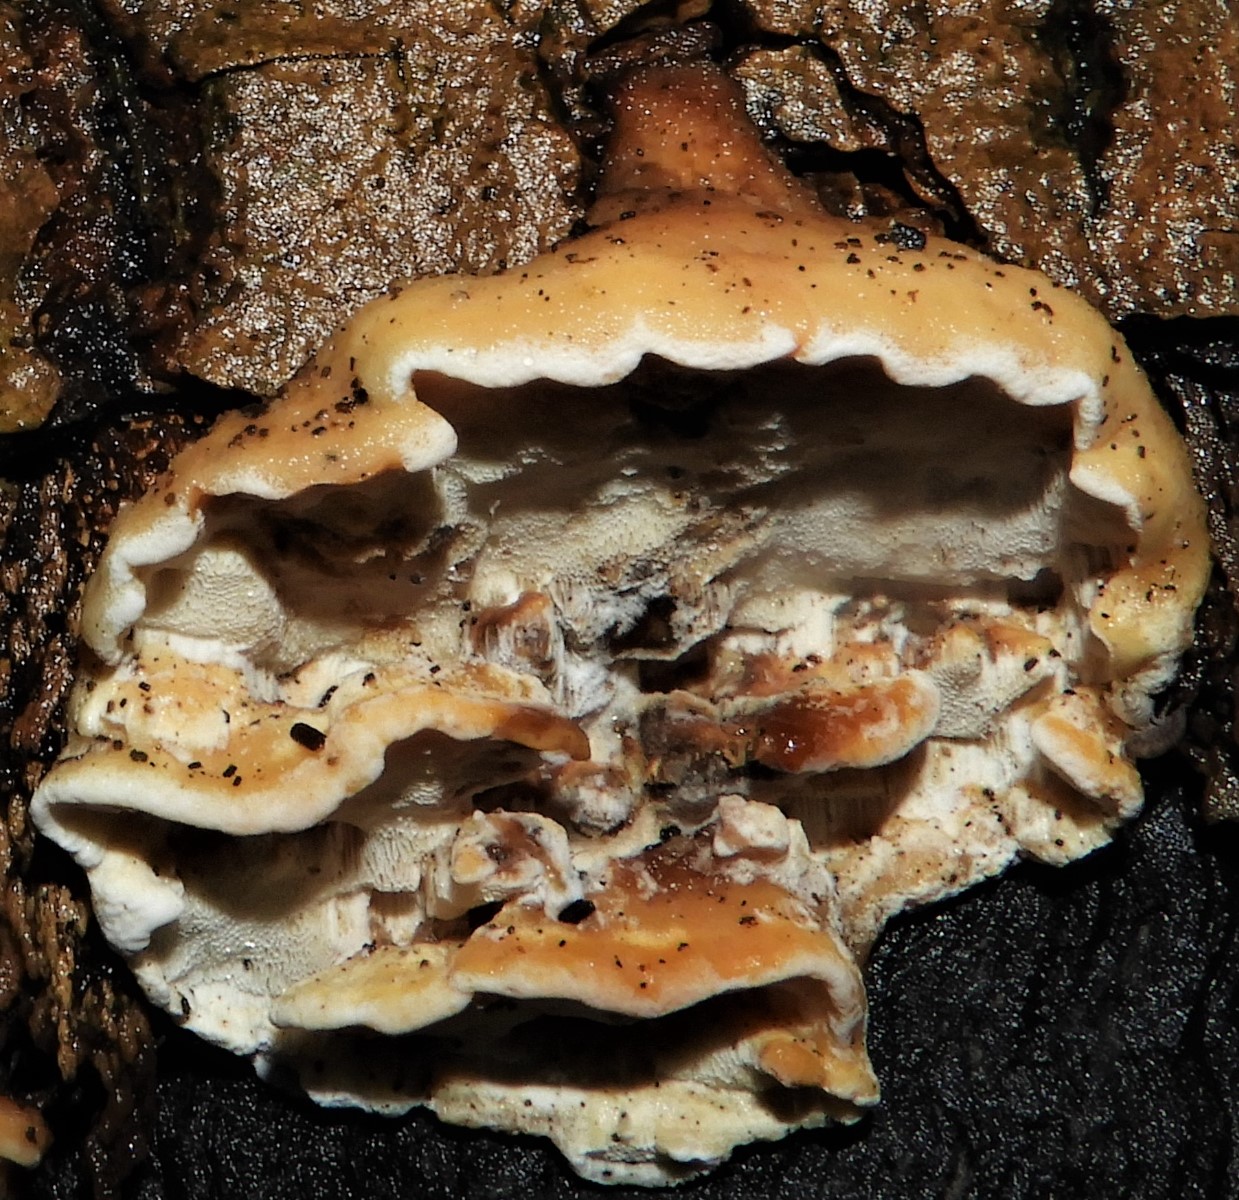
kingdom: Fungi
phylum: Basidiomycota
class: Agaricomycetes
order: Polyporales
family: Incrustoporiaceae
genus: Skeletocutis
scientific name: Skeletocutis nemoralis
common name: stor krystalporesvamp
